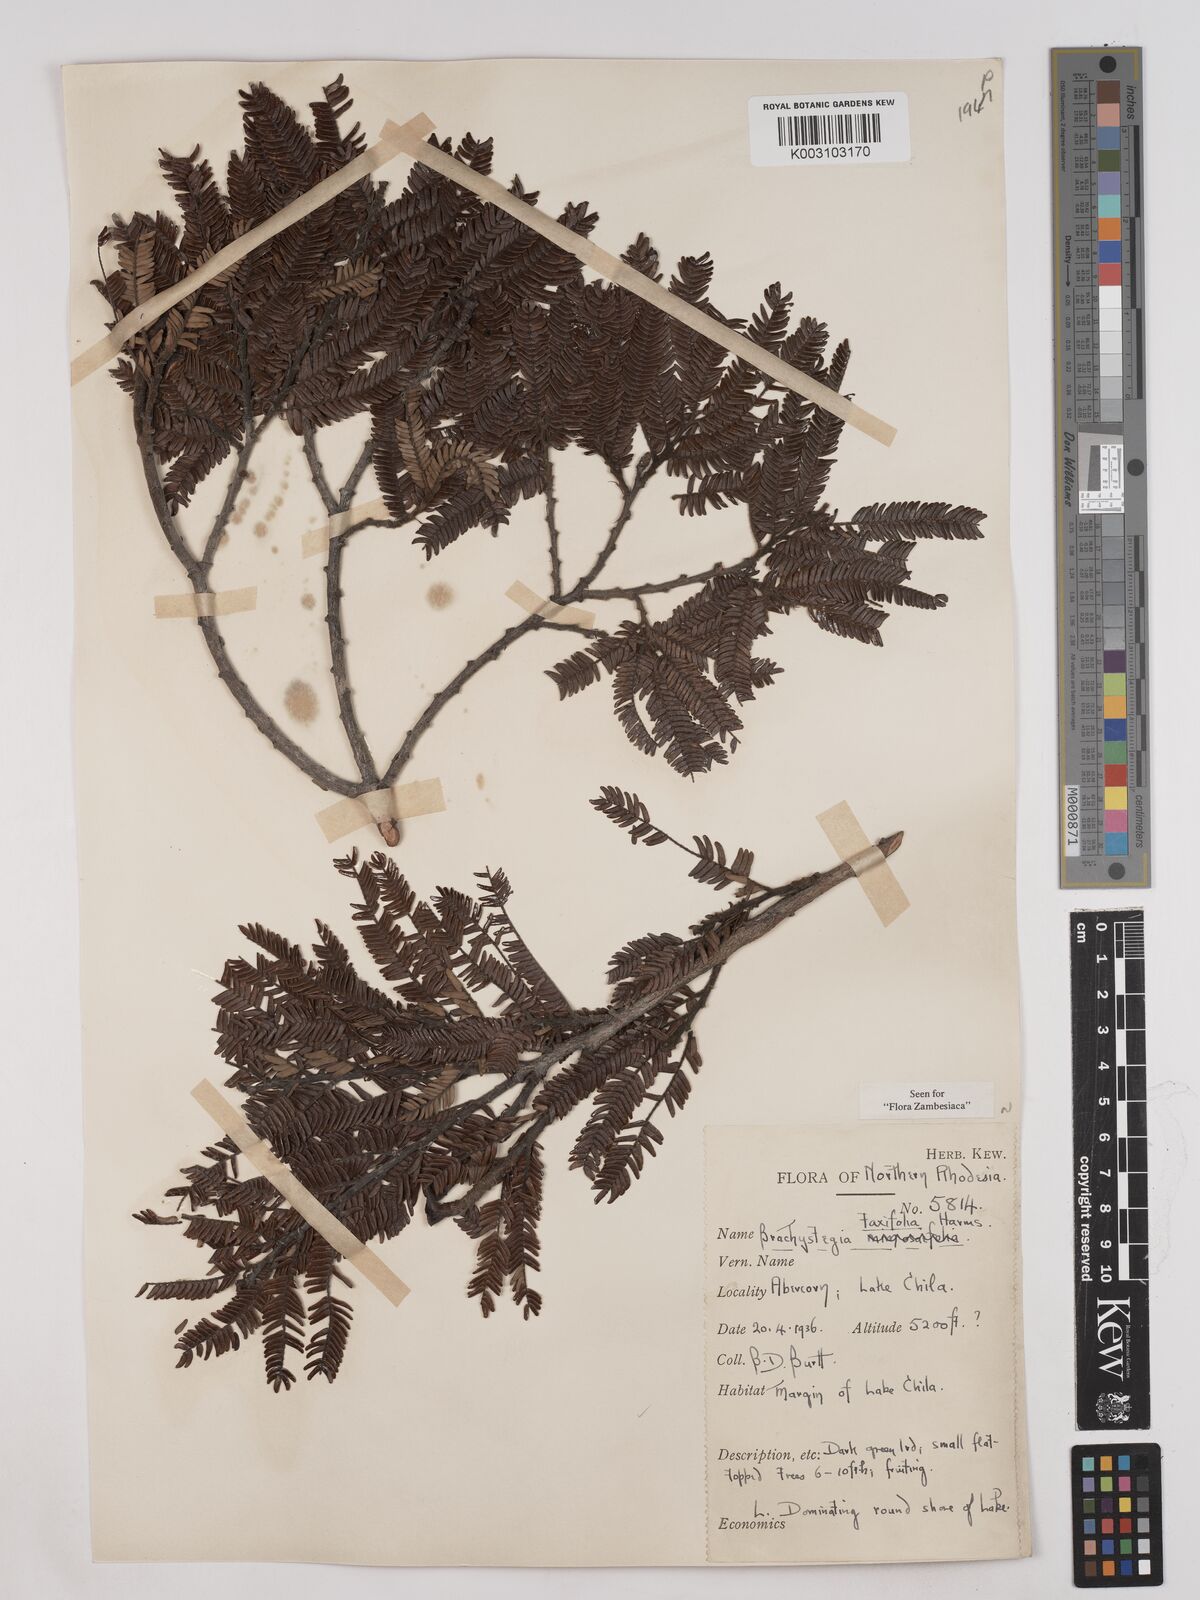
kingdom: Plantae
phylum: Tracheophyta
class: Magnoliopsida
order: Fabales
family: Fabaceae
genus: Brachystegia
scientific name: Brachystegia taxifolia
